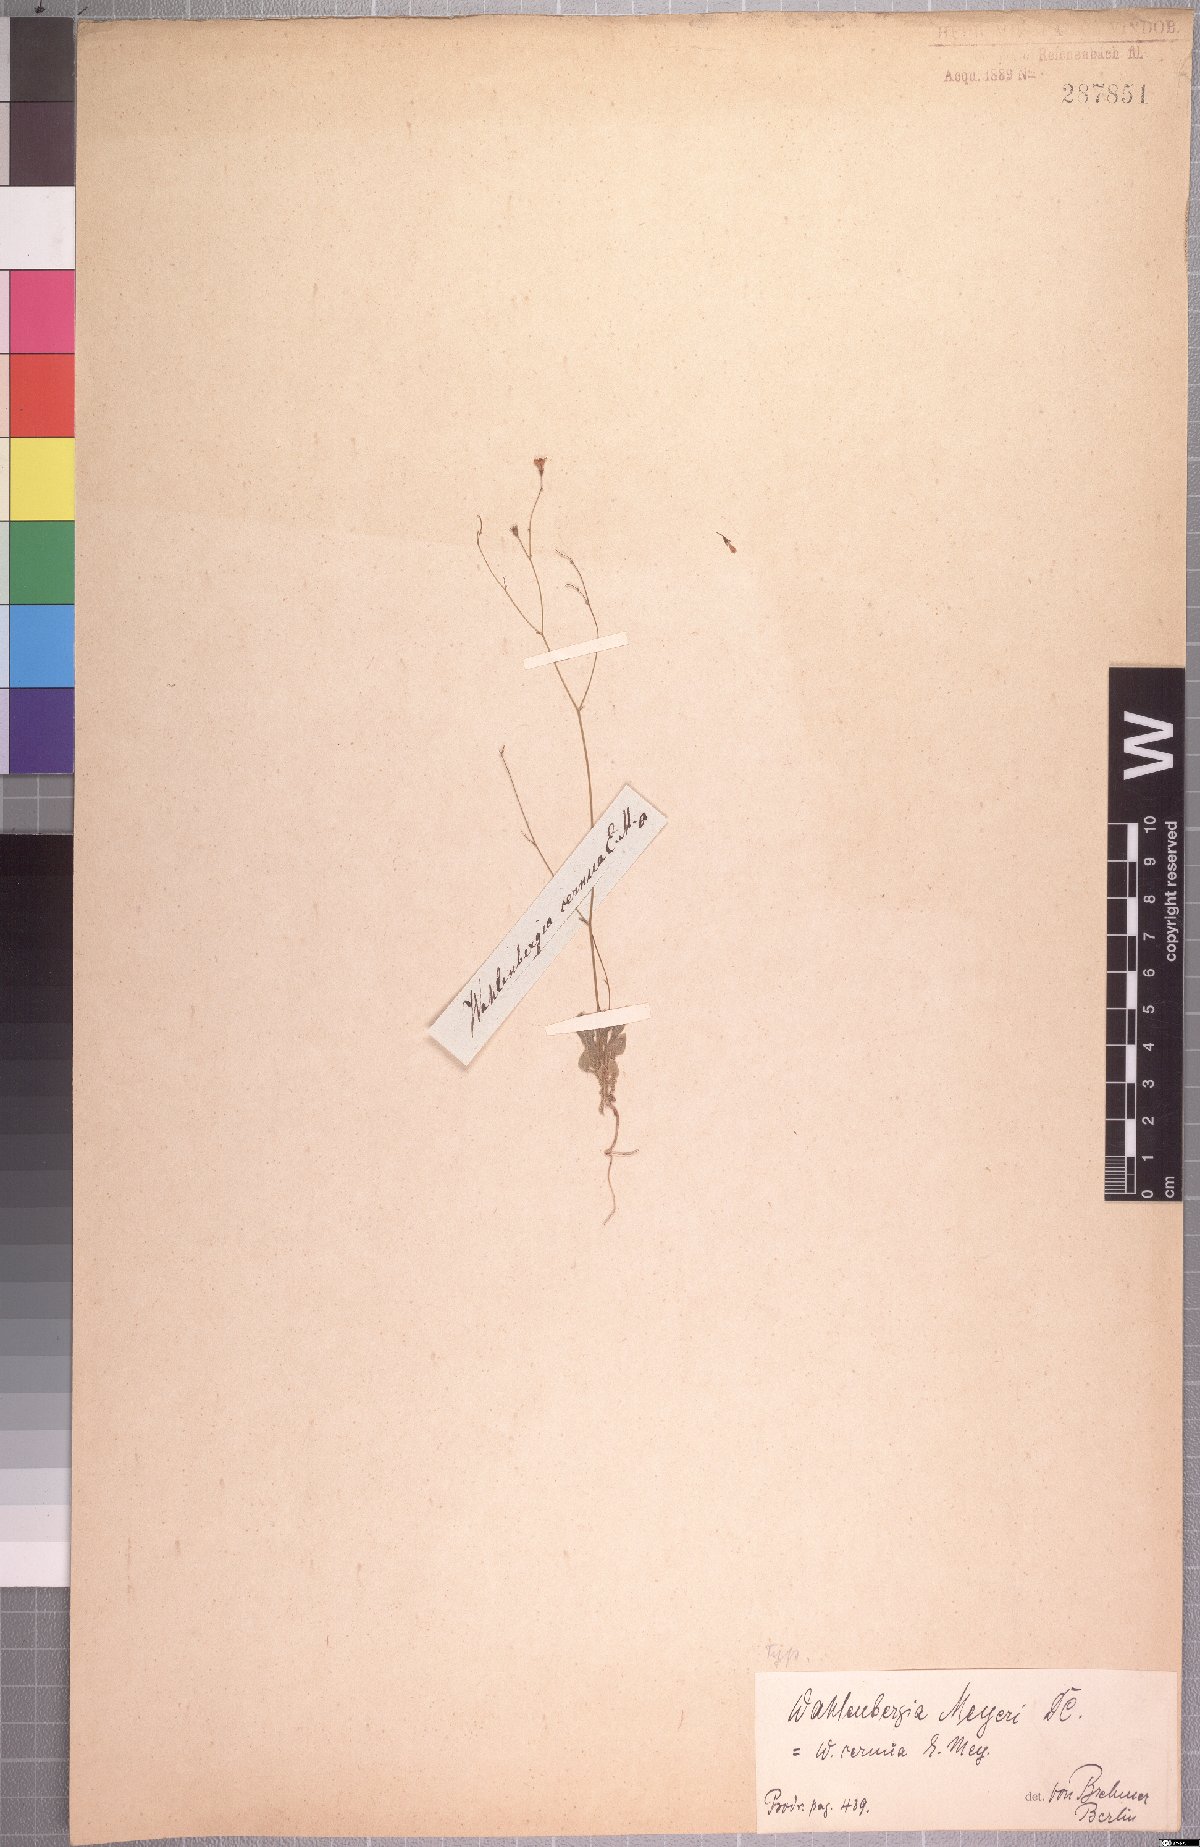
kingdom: Plantae
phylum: Tracheophyta
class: Magnoliopsida
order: Asterales
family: Campanulaceae
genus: Wahlenbergia
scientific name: Wahlenbergia meyeri
